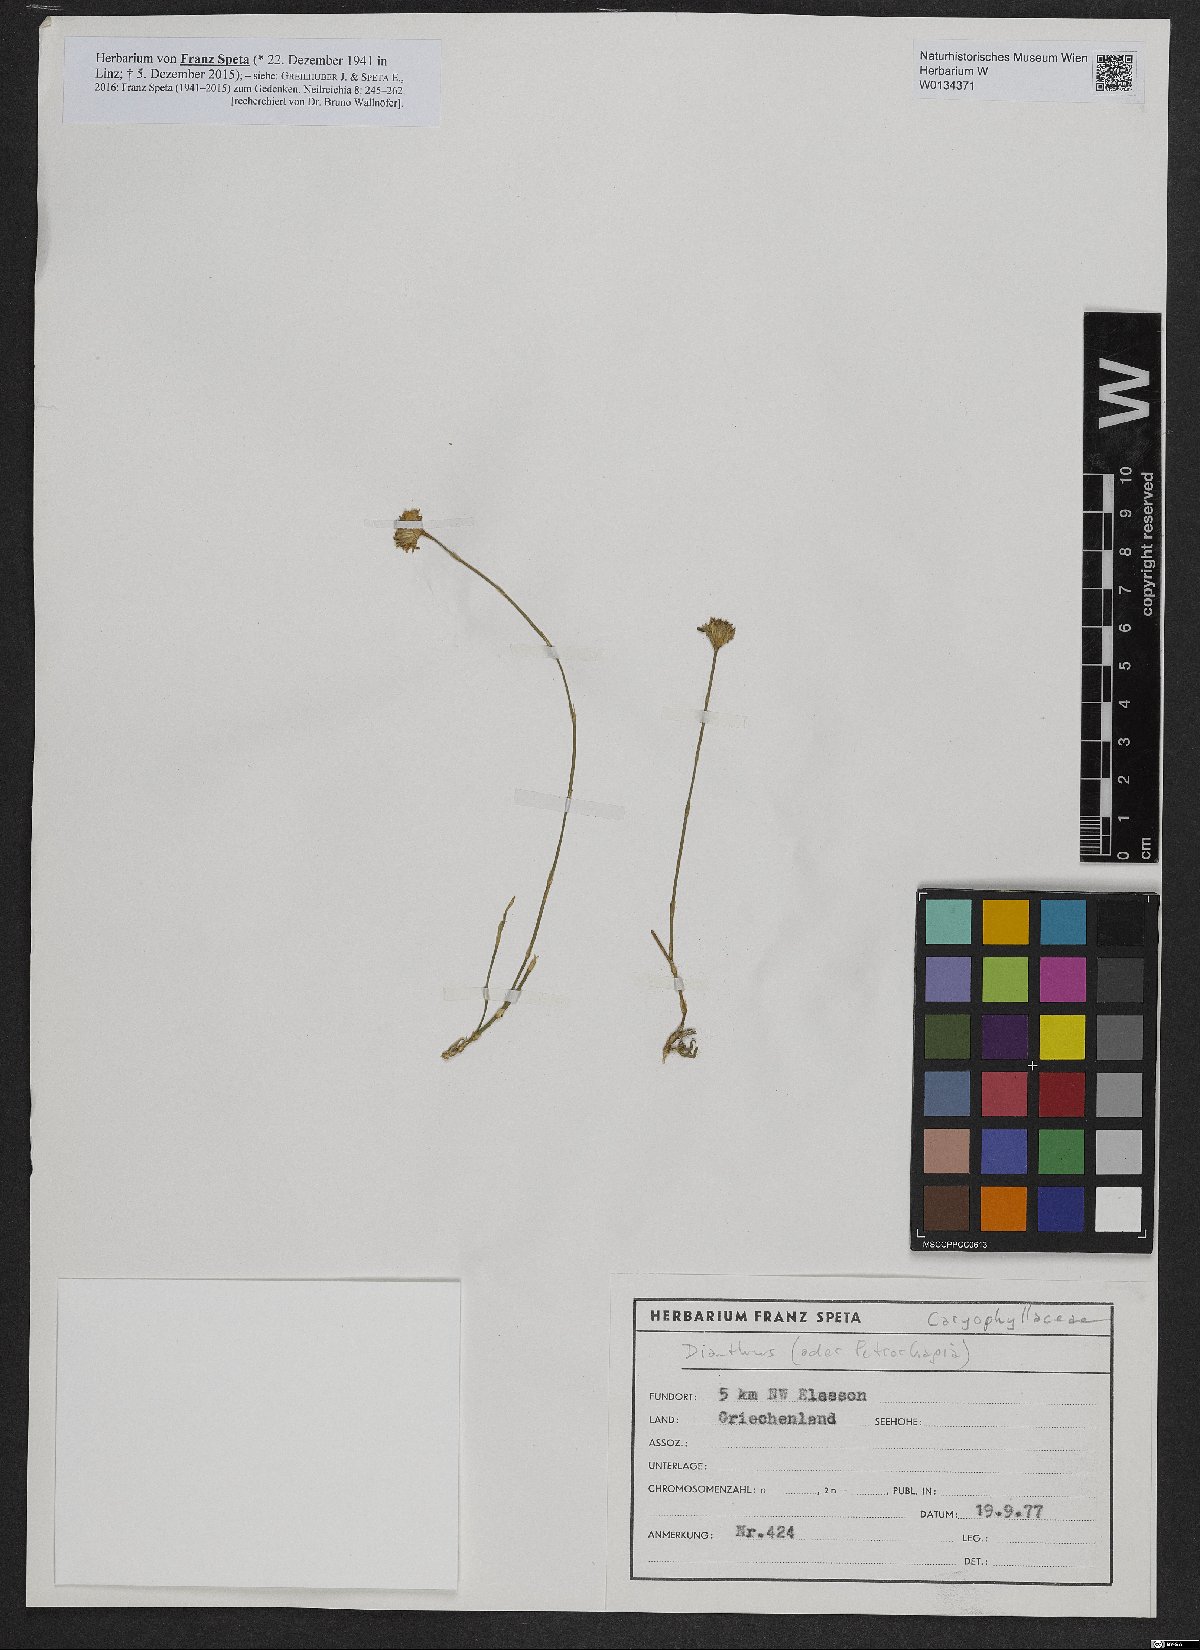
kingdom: Plantae
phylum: Tracheophyta
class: Magnoliopsida
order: Caryophyllales
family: Caryophyllaceae
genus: Dianthus
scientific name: Dianthus
